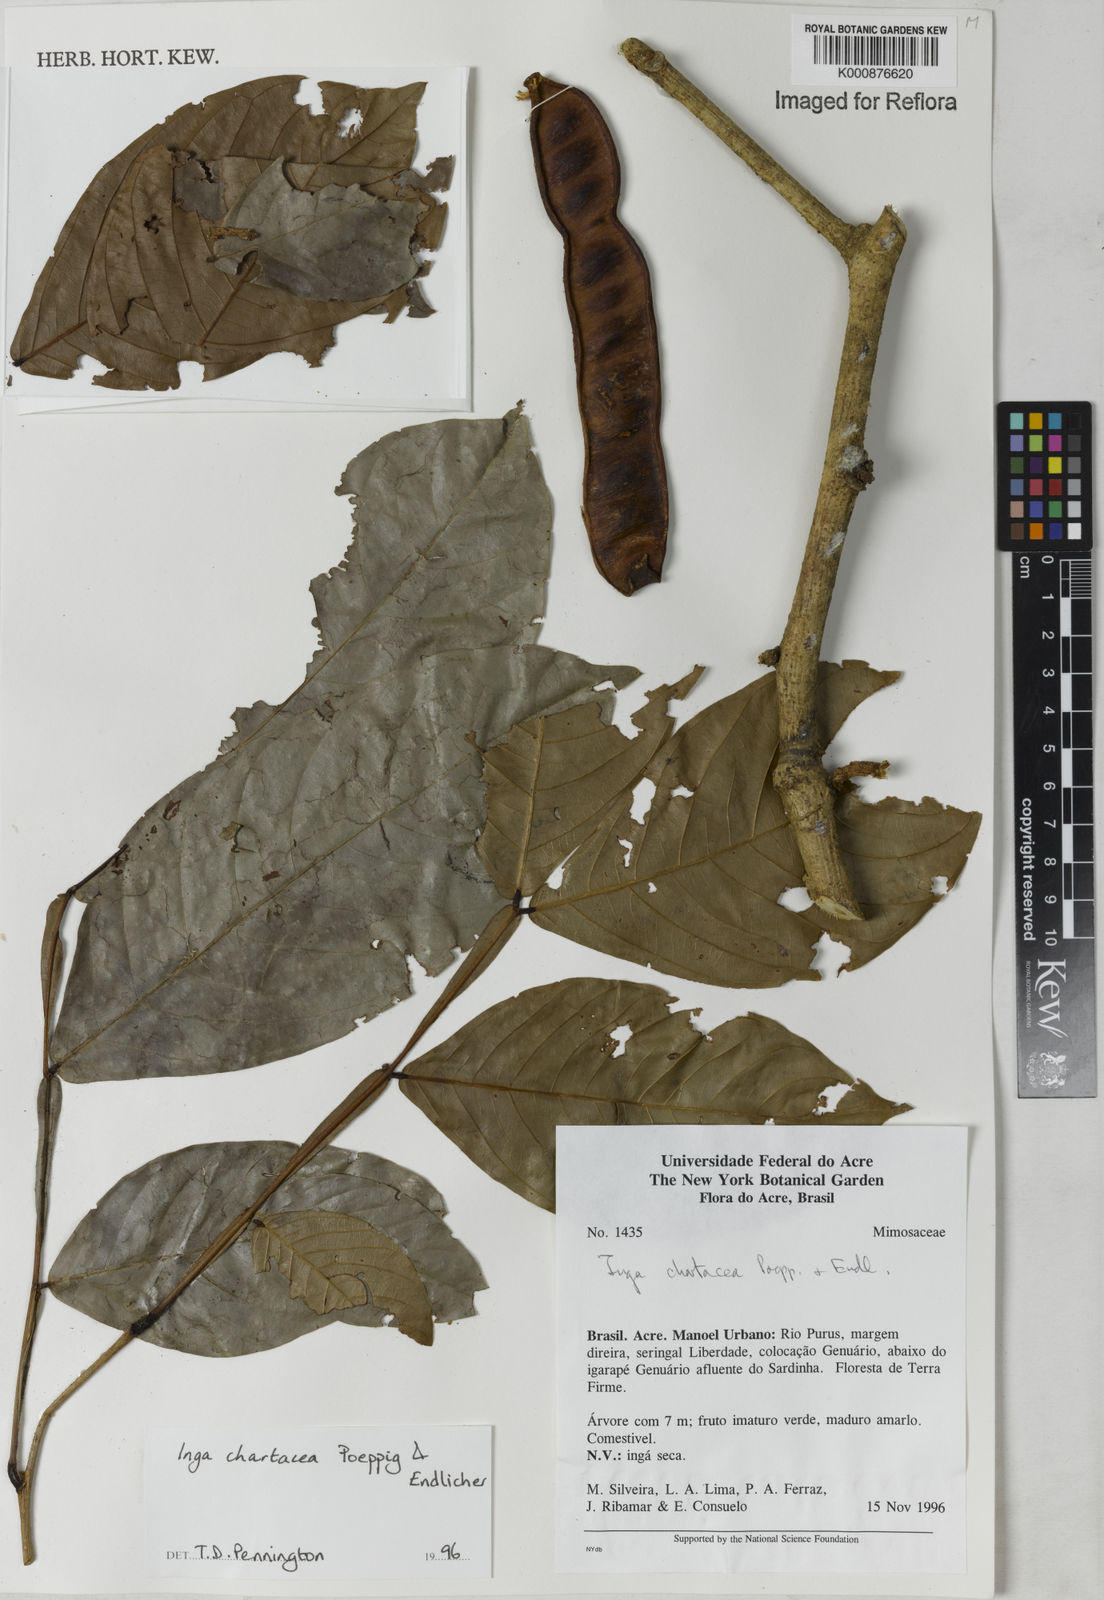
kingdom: Plantae
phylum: Tracheophyta
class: Magnoliopsida
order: Fabales
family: Fabaceae
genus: Inga
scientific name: Inga chartacea
